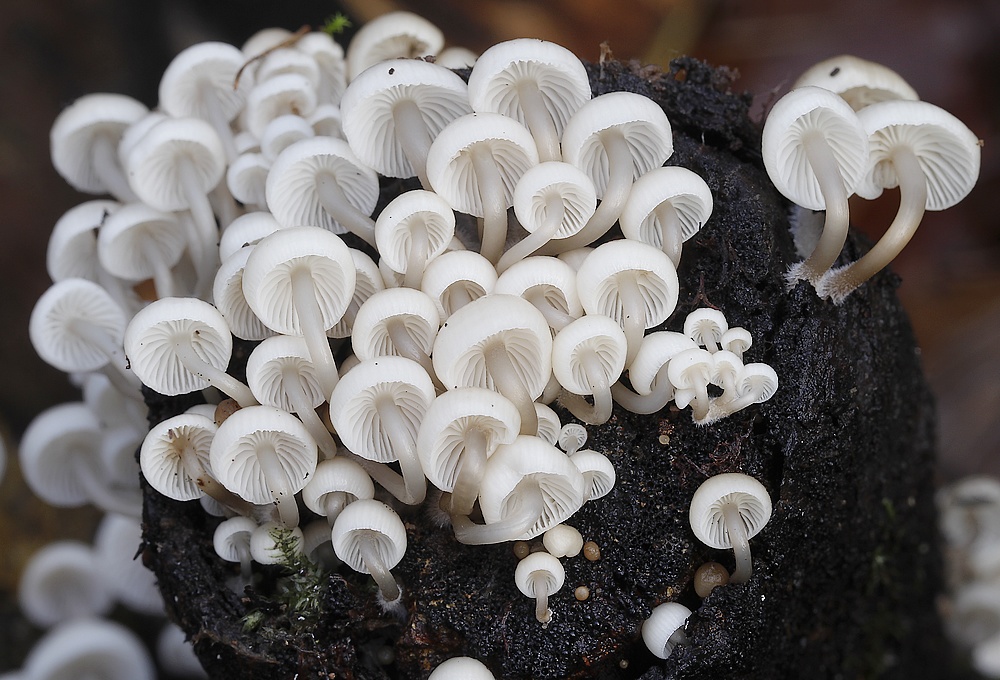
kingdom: Fungi
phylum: Basidiomycota
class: Agaricomycetes
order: Agaricales
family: Mycenaceae
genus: Mycena
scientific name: Mycena tintinnabulum
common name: vinter-huesvamp
